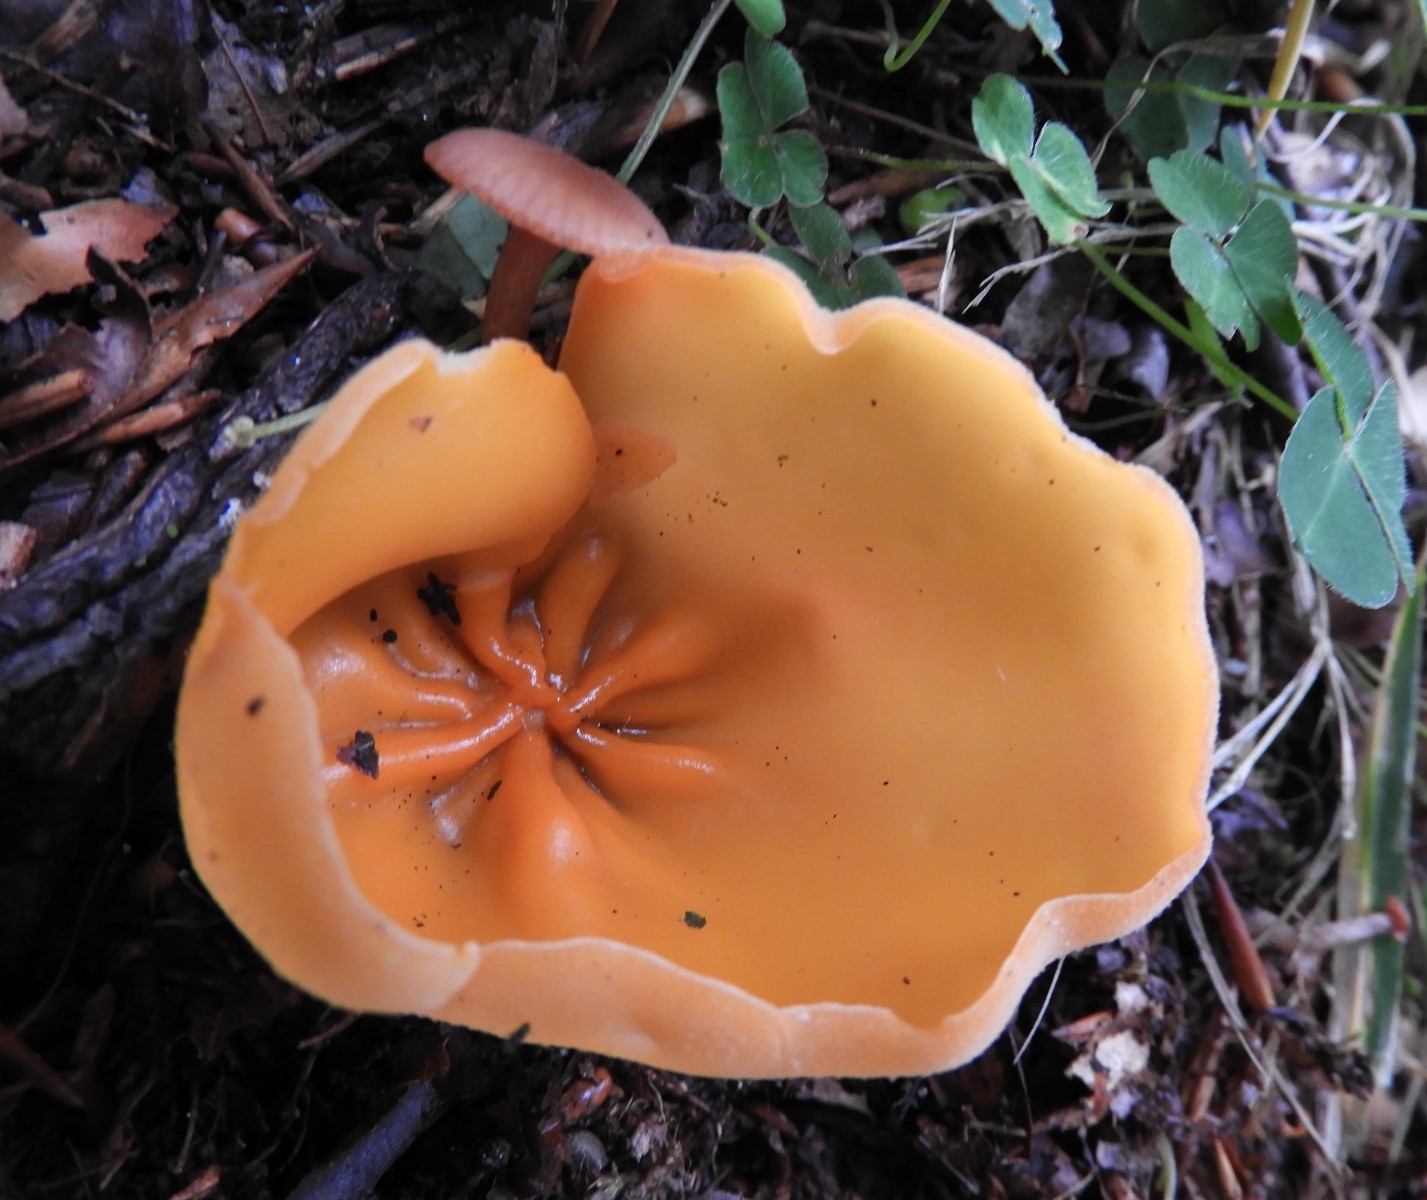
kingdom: Fungi
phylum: Ascomycota
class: Pezizomycetes
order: Pezizales
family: Pyronemataceae
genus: Aleuria
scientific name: Aleuria aurantia
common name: almindelig orangebæger
